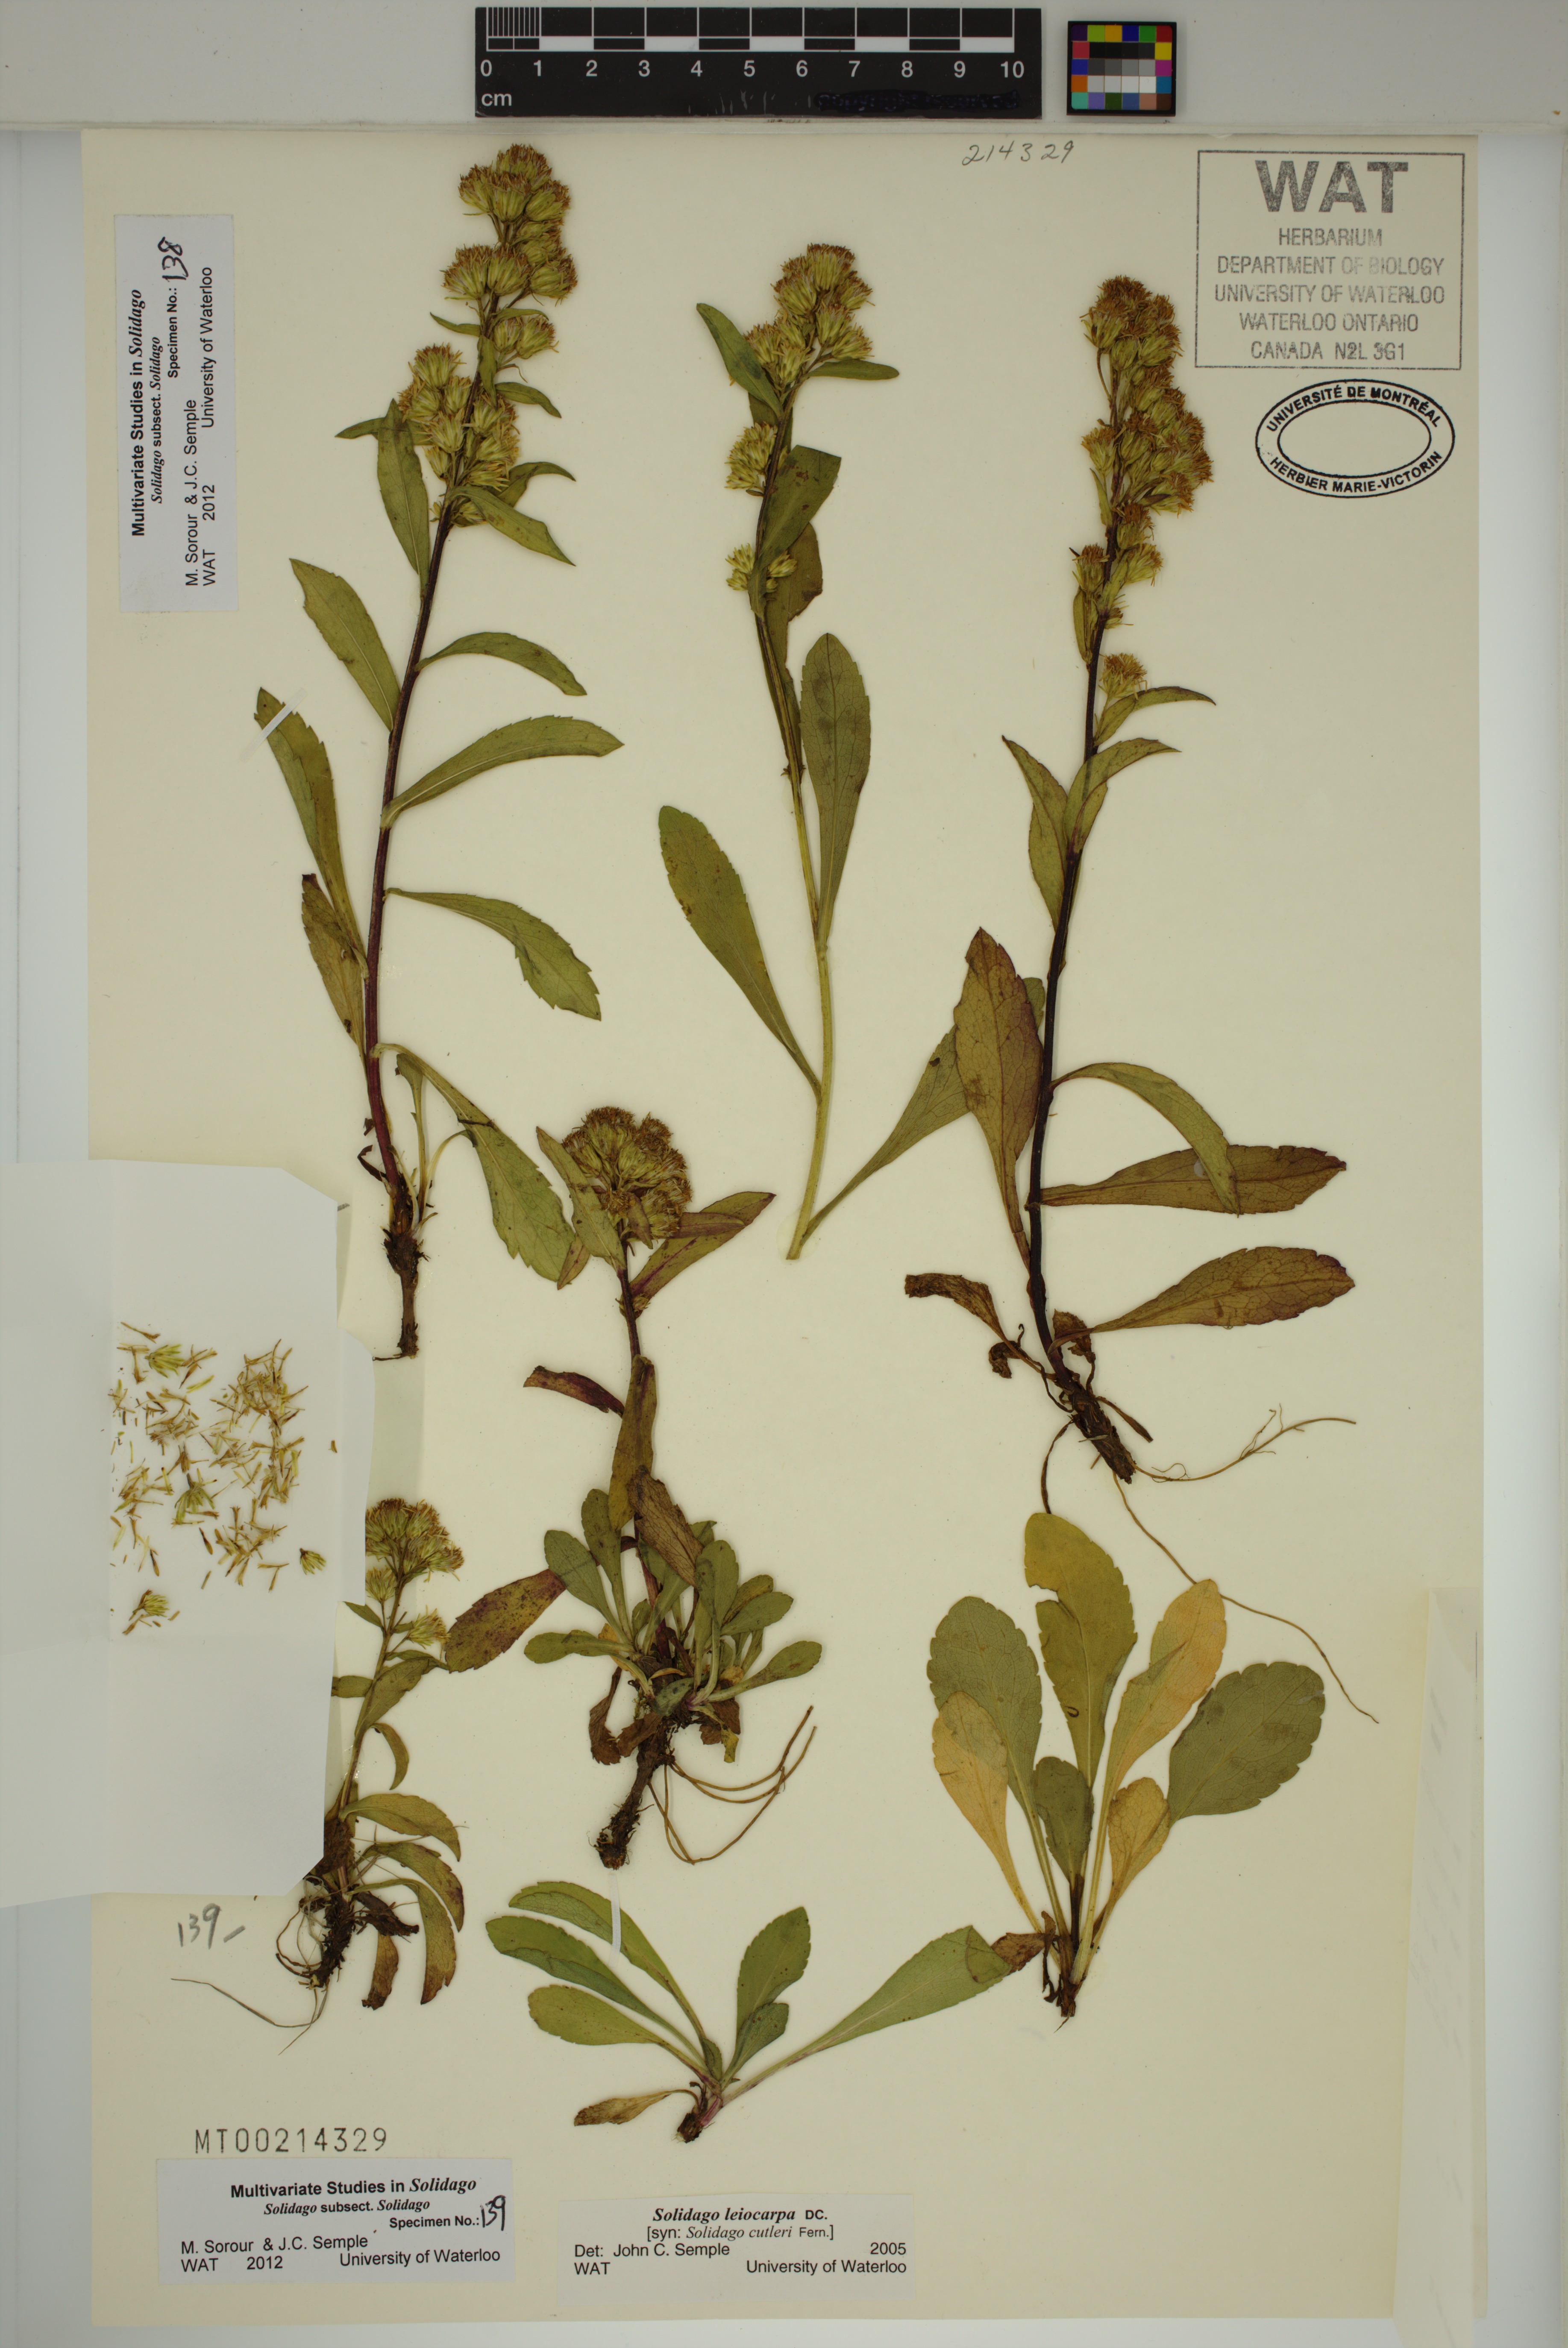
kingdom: Plantae
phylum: Tracheophyta
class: Magnoliopsida
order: Asterales
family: Asteraceae
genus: Solidago
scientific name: Solidago leiocarpa
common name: Cutler's alpine goldenrod
